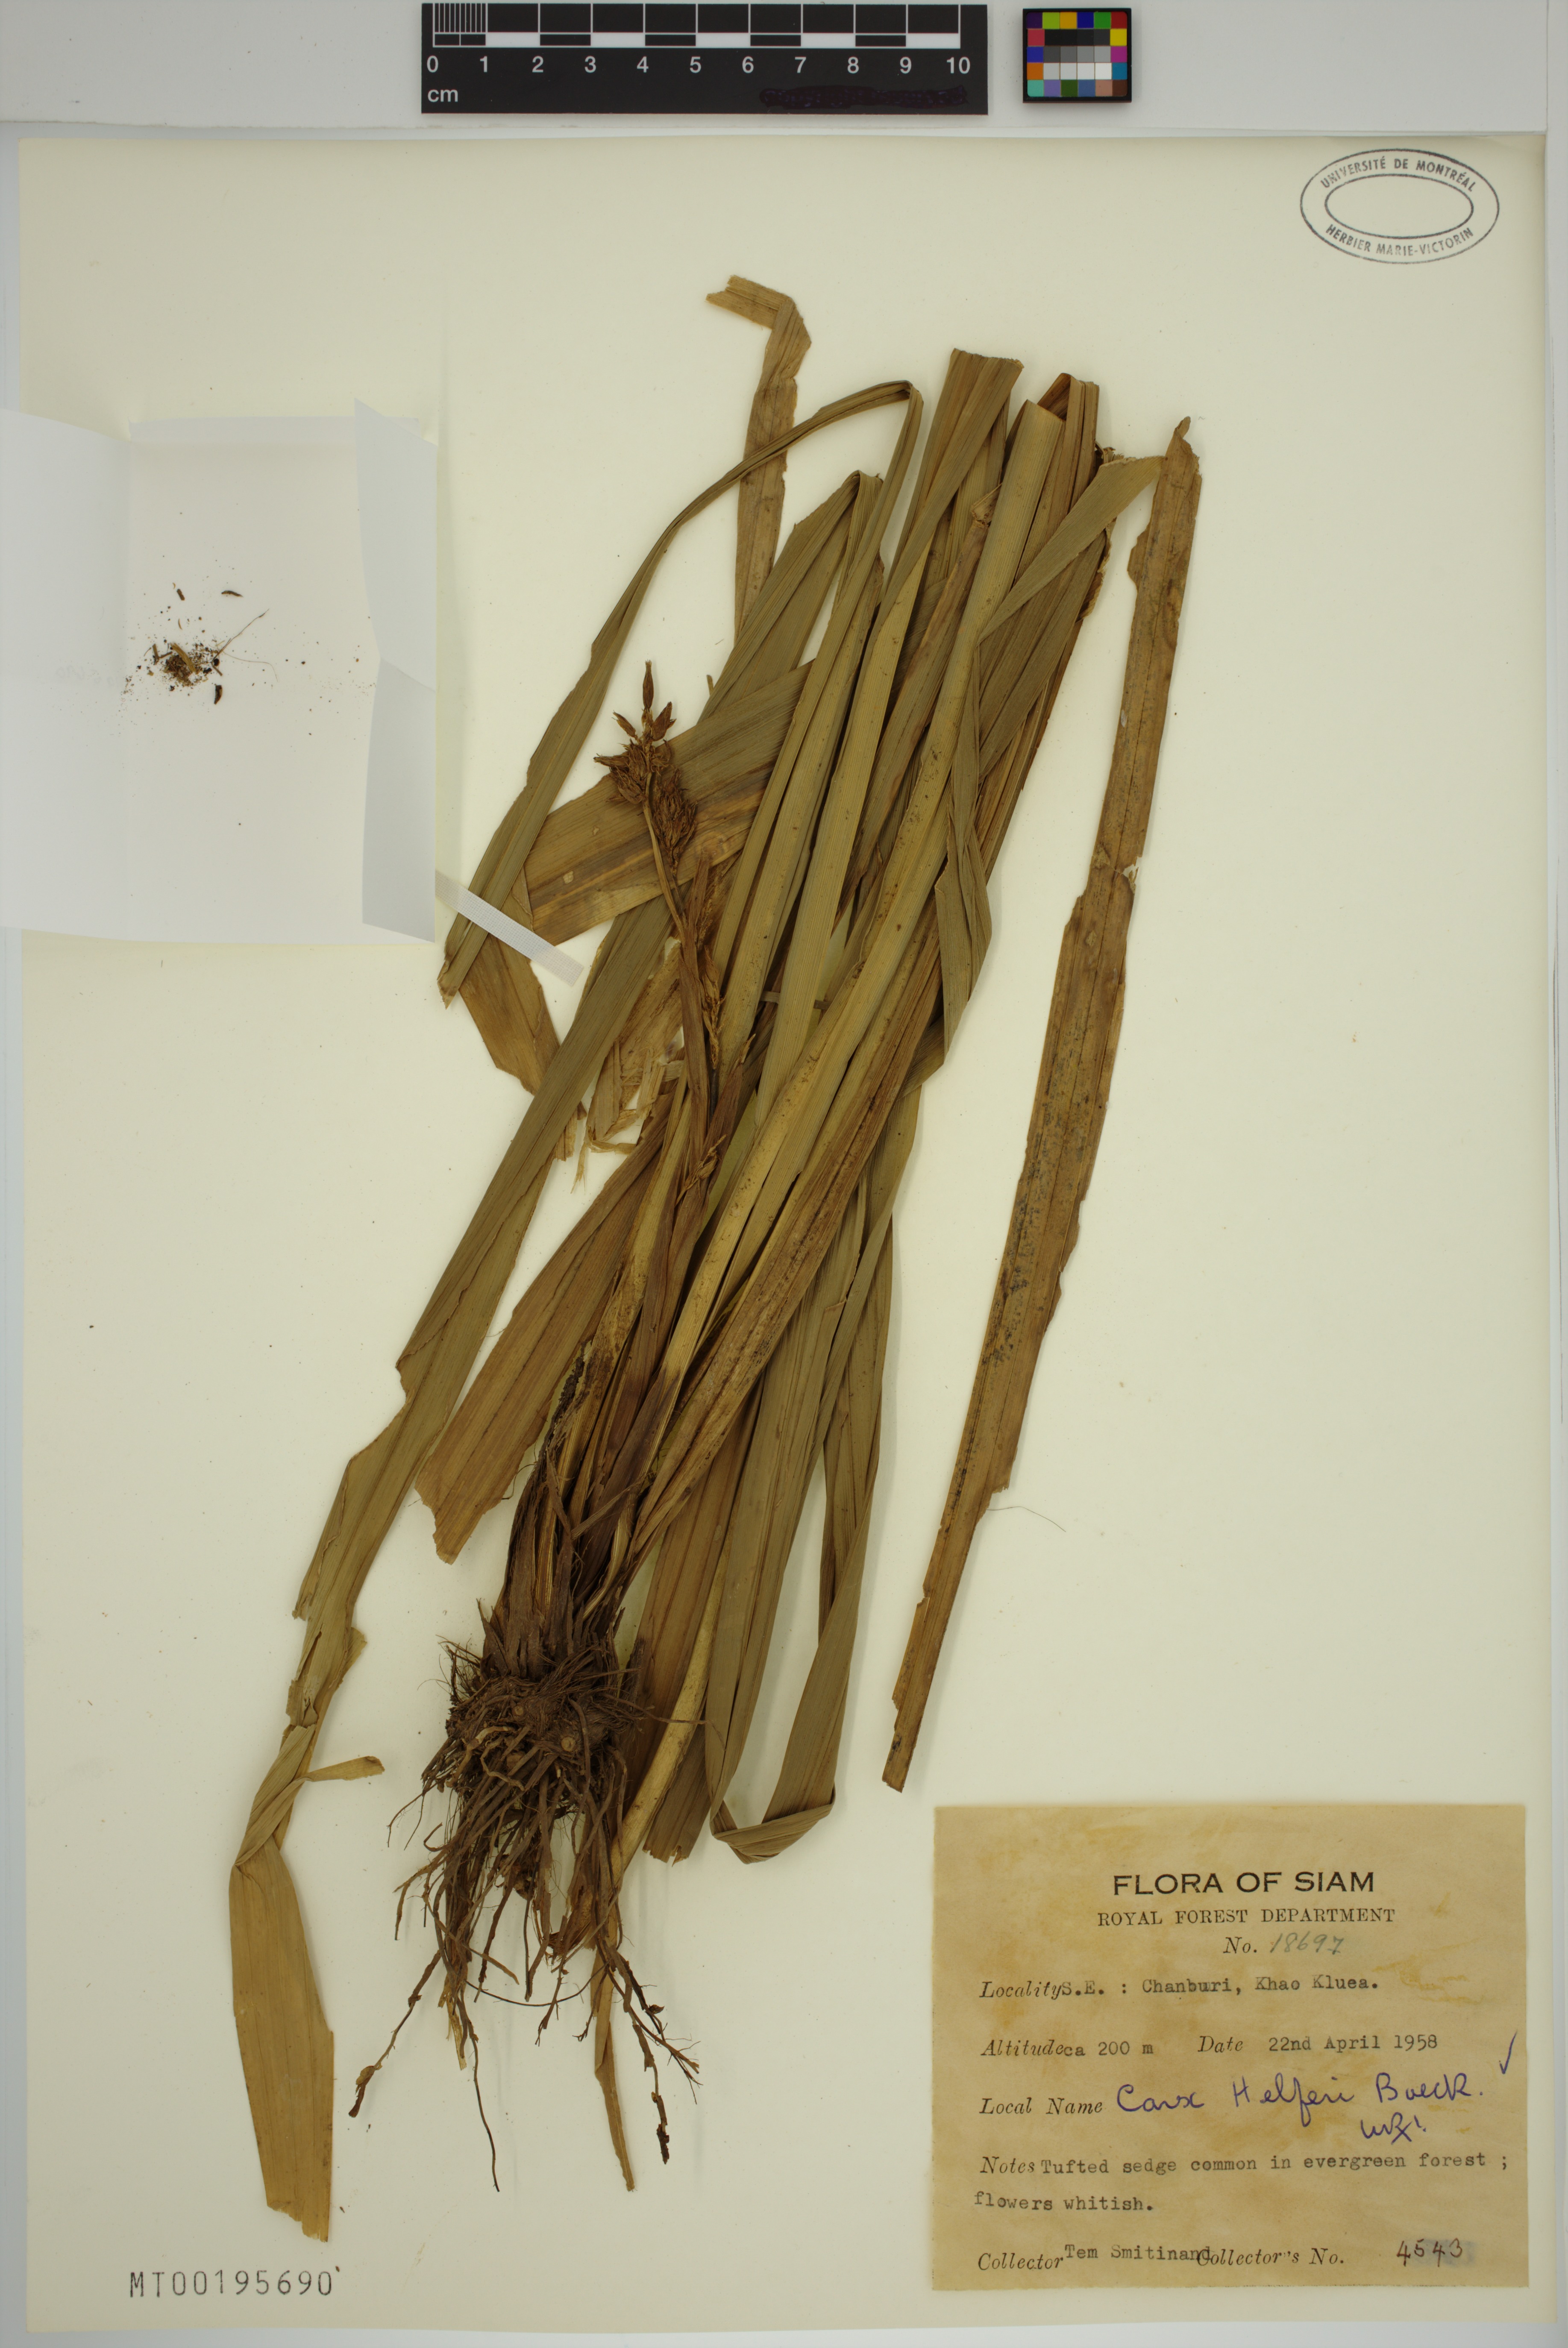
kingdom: Plantae
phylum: Tracheophyta
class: Liliopsida
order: Poales
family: Cyperaceae
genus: Carex
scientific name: Carex helferi
